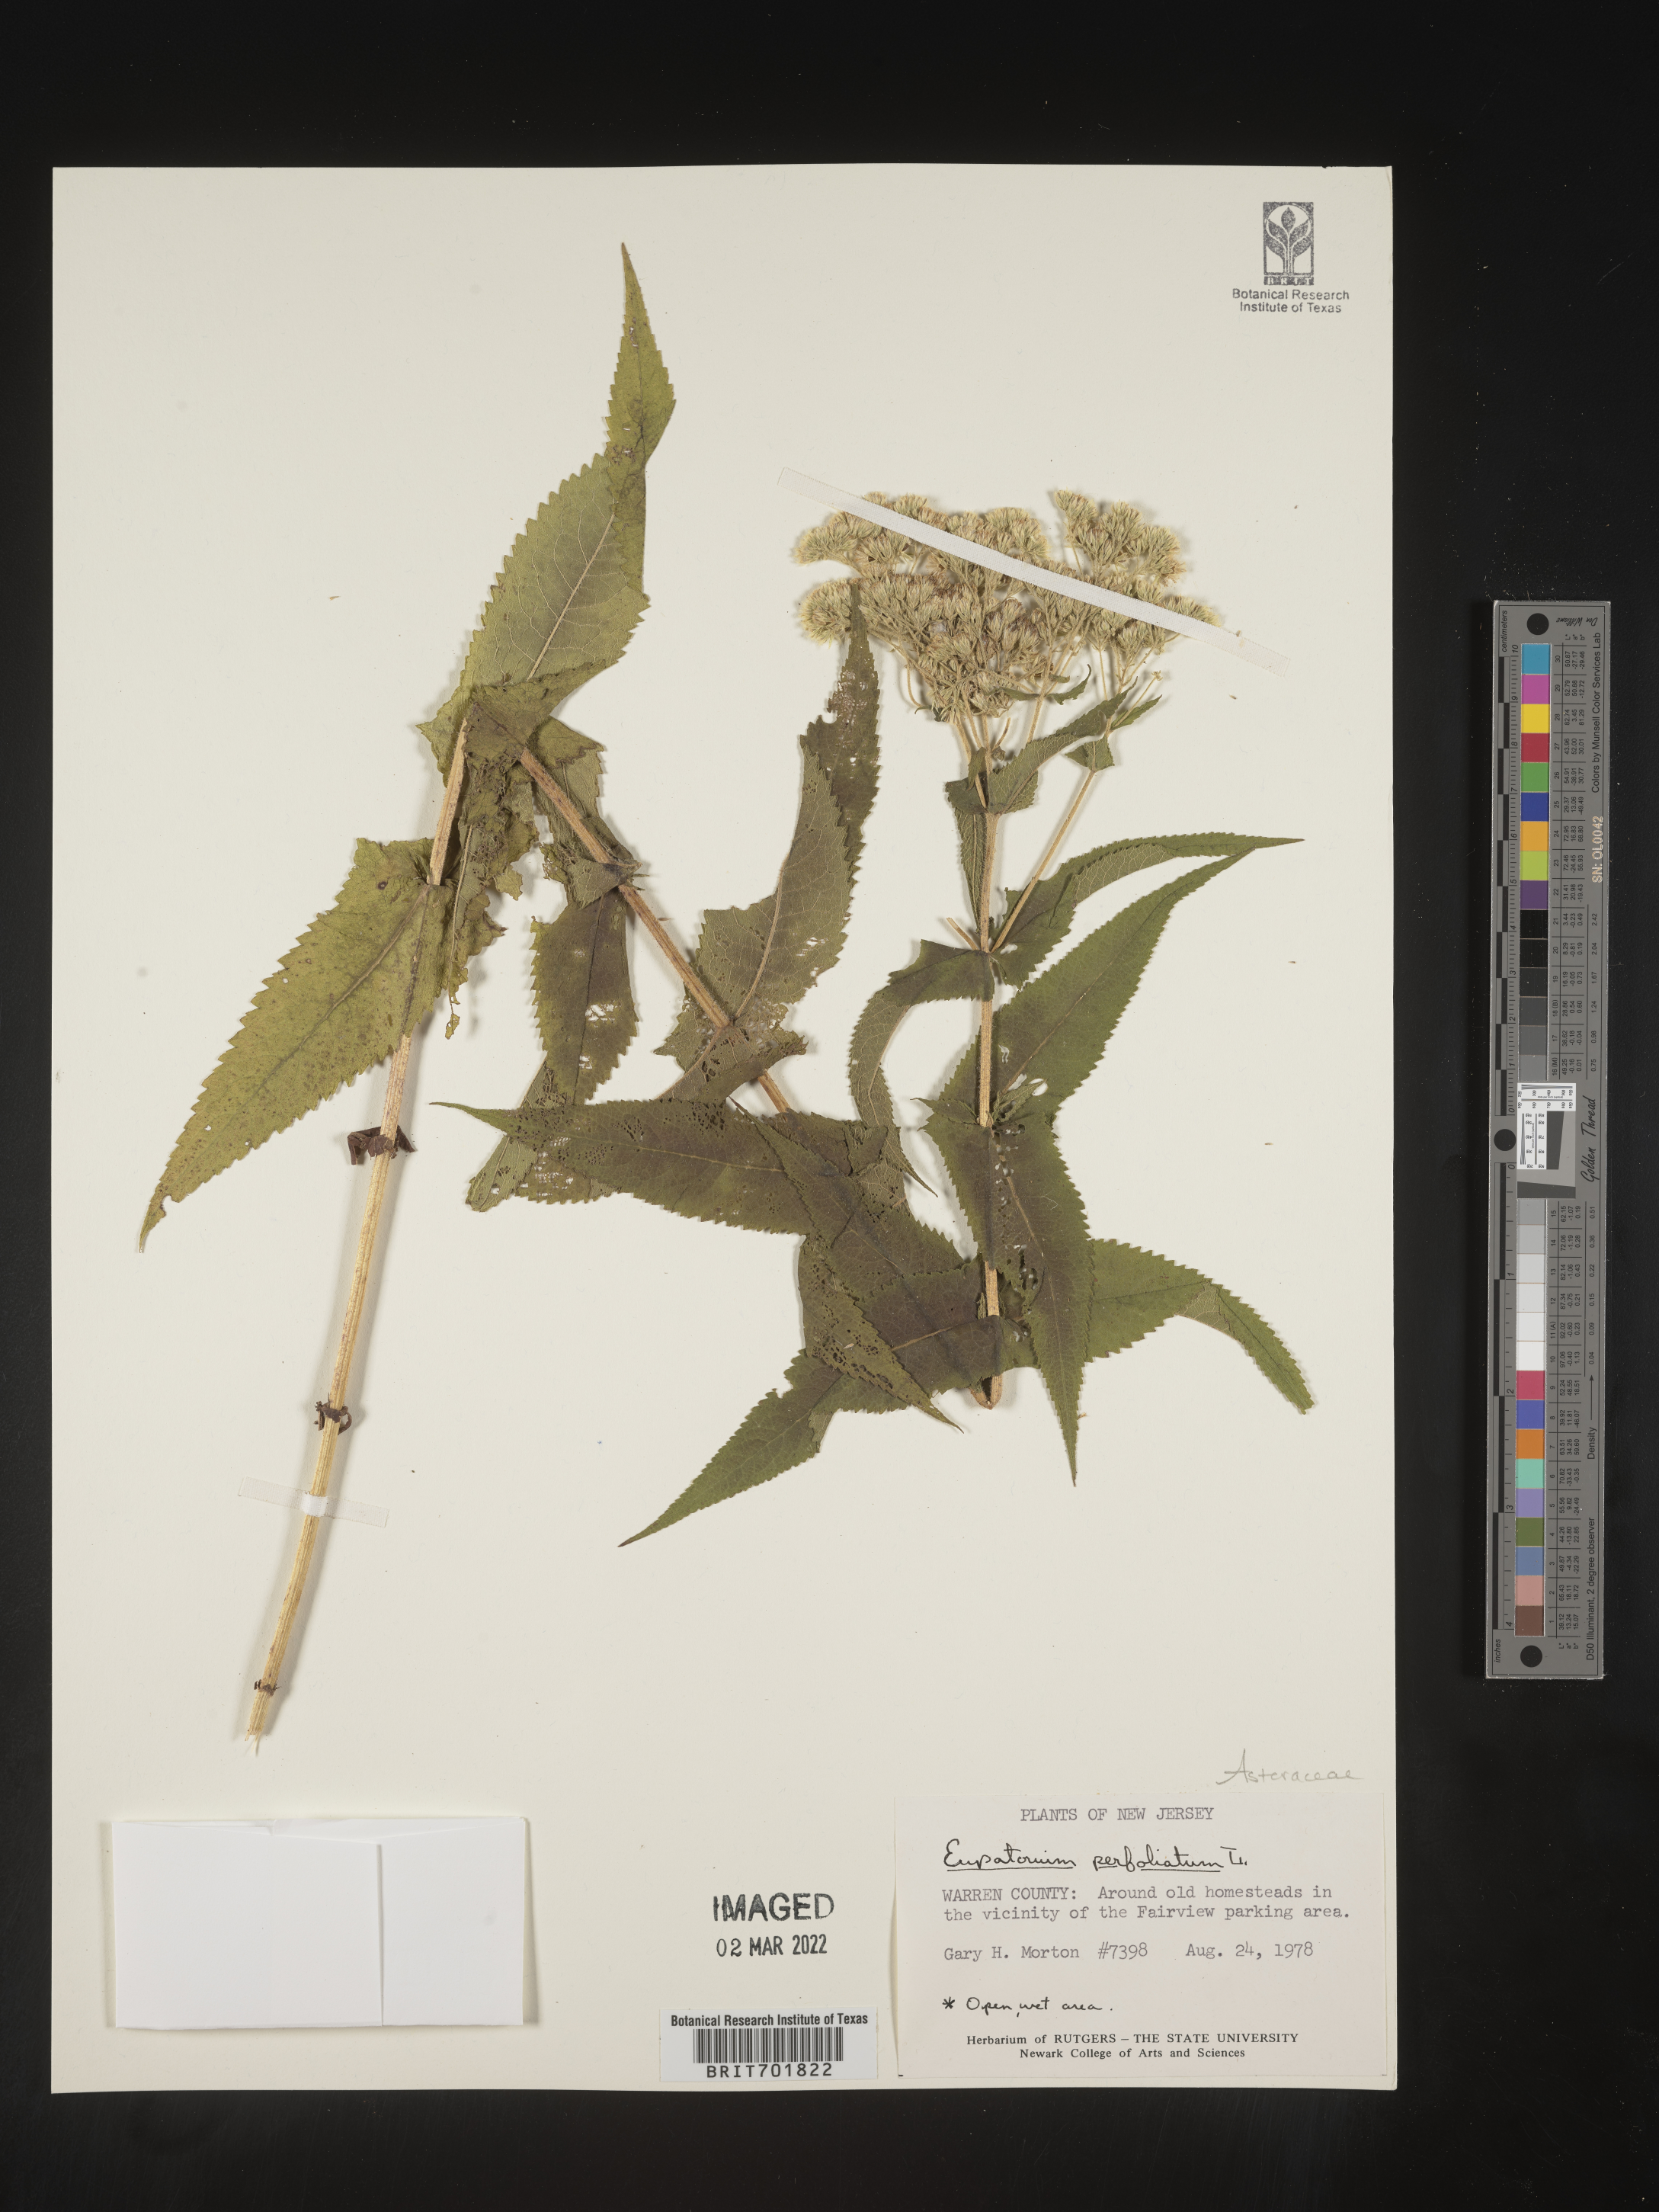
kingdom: Plantae
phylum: Tracheophyta
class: Magnoliopsida
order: Asterales
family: Asteraceae
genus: Eupatorium
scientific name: Eupatorium perfoliatum
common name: Boneset
